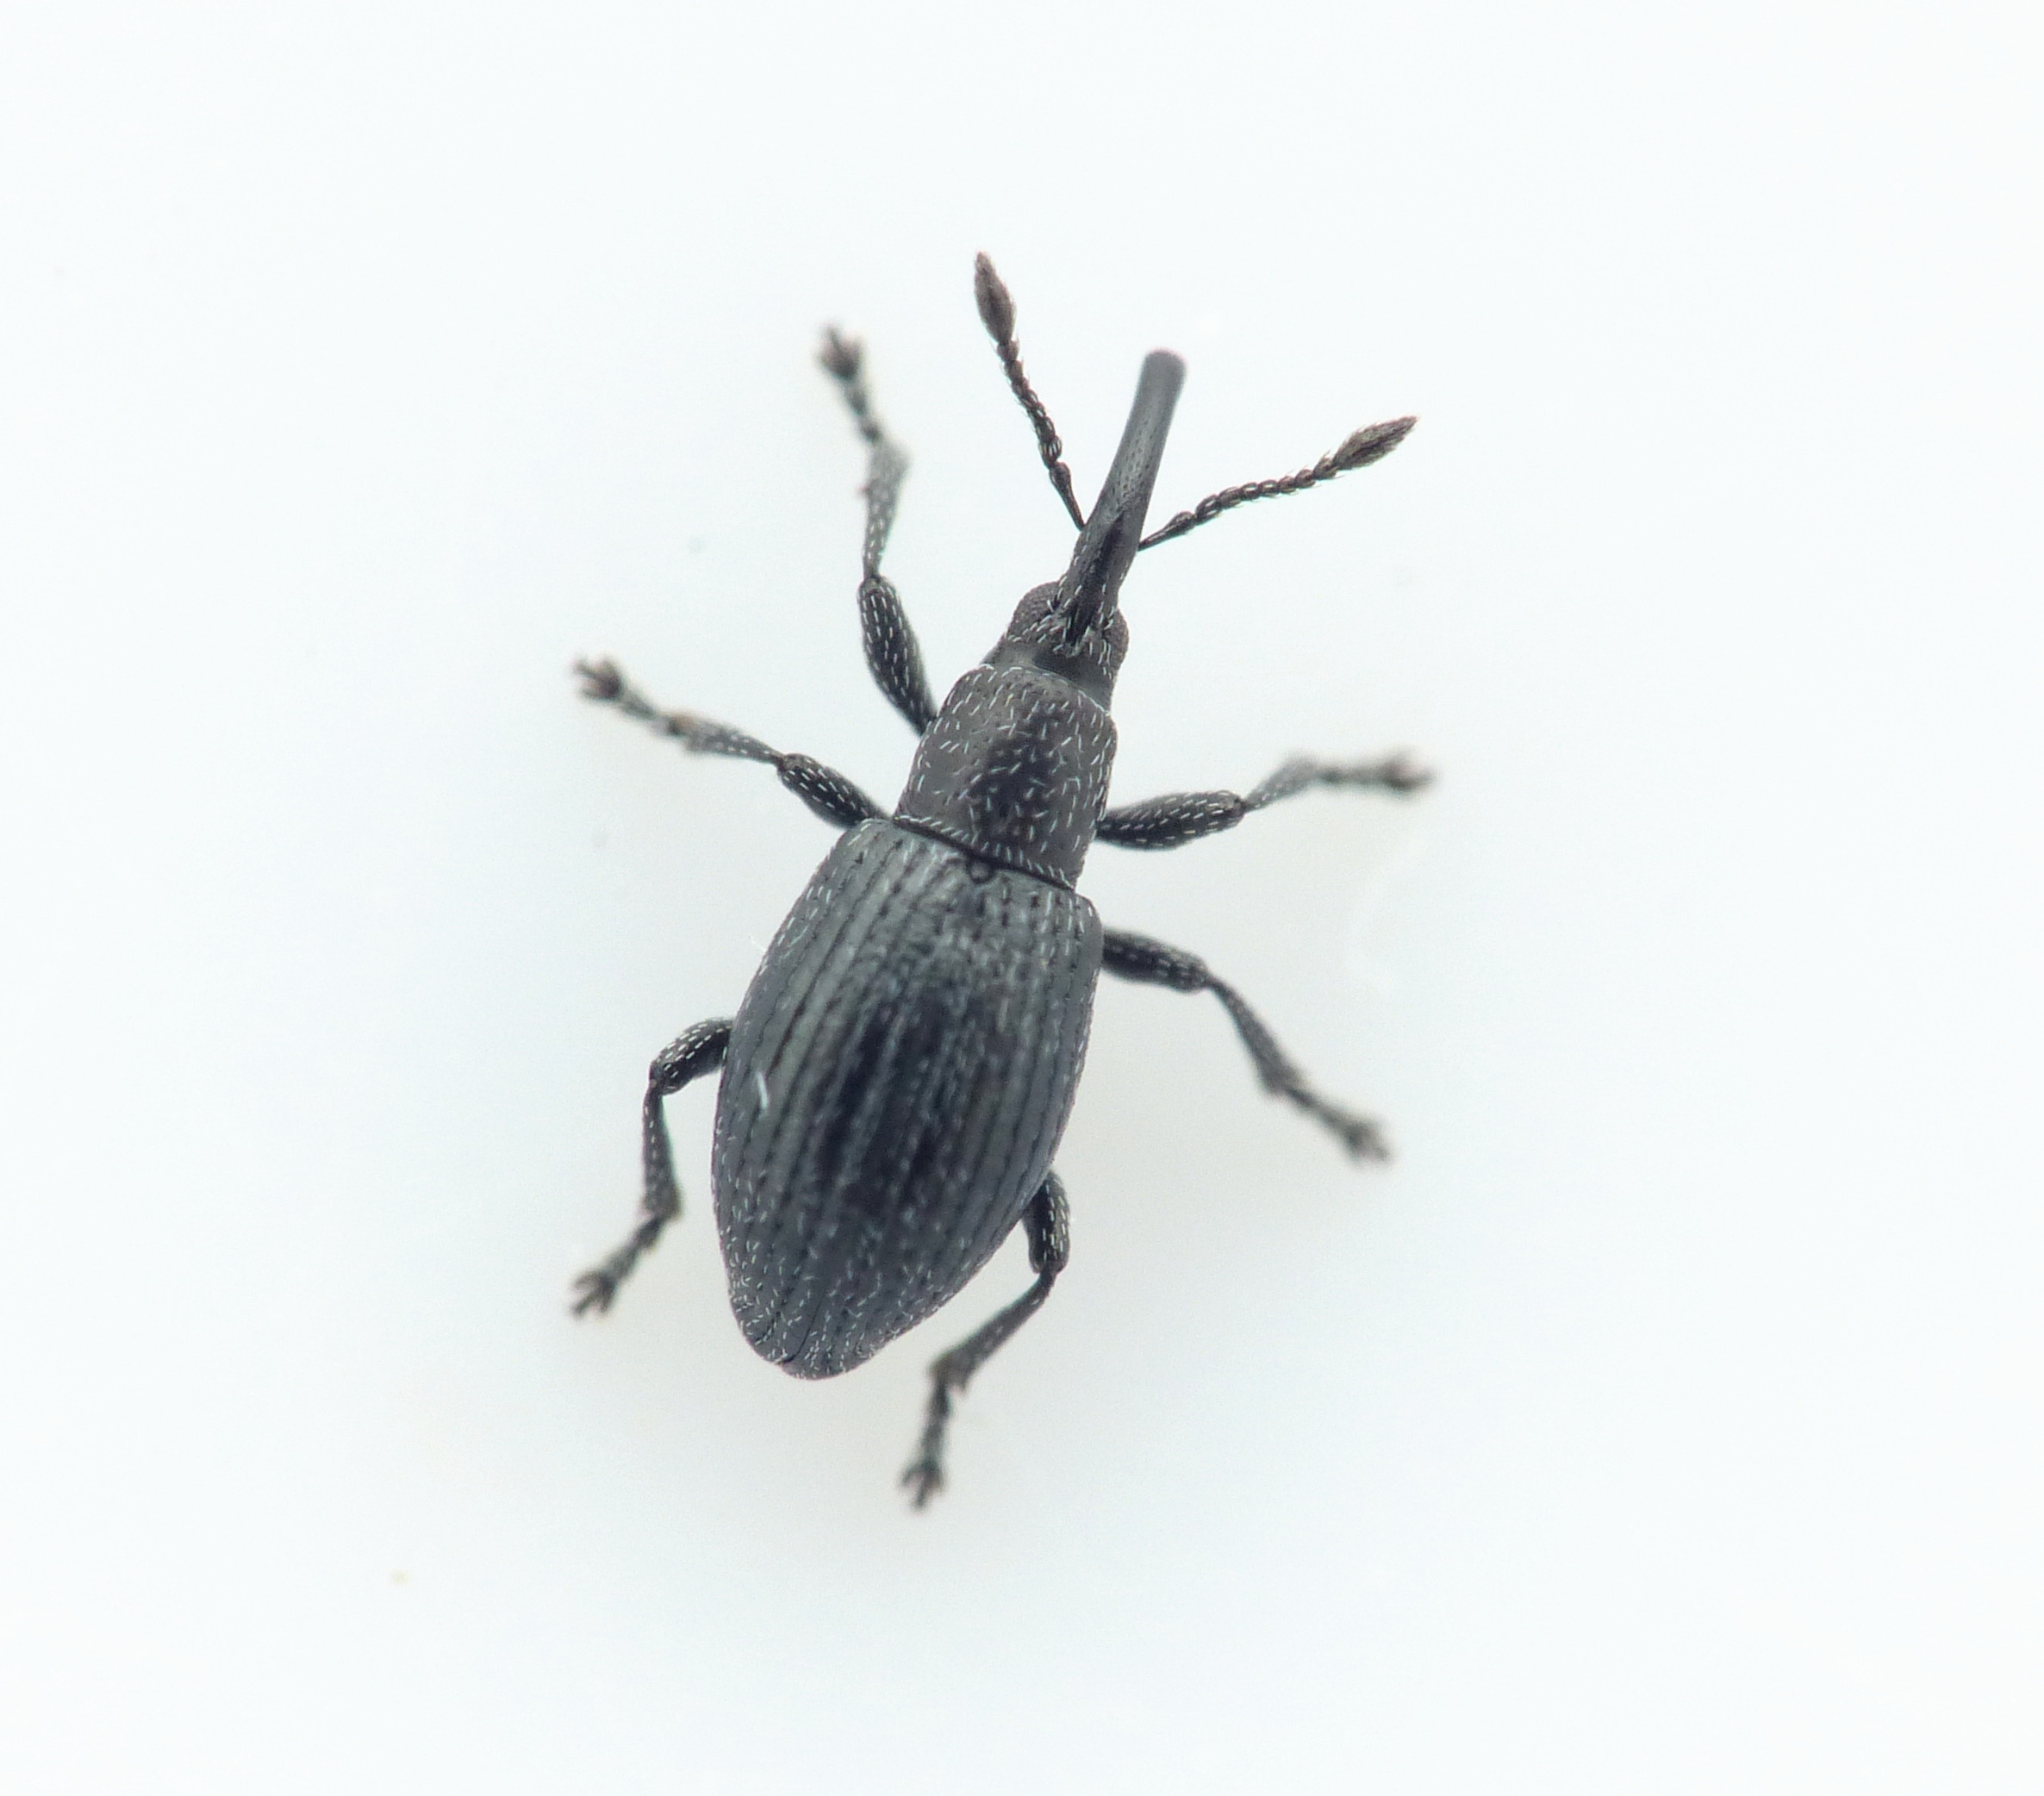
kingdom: Animalia
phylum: Arthropoda
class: Insecta
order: Coleoptera
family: Apionidae
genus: Diplapion
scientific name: Diplapion confluens
